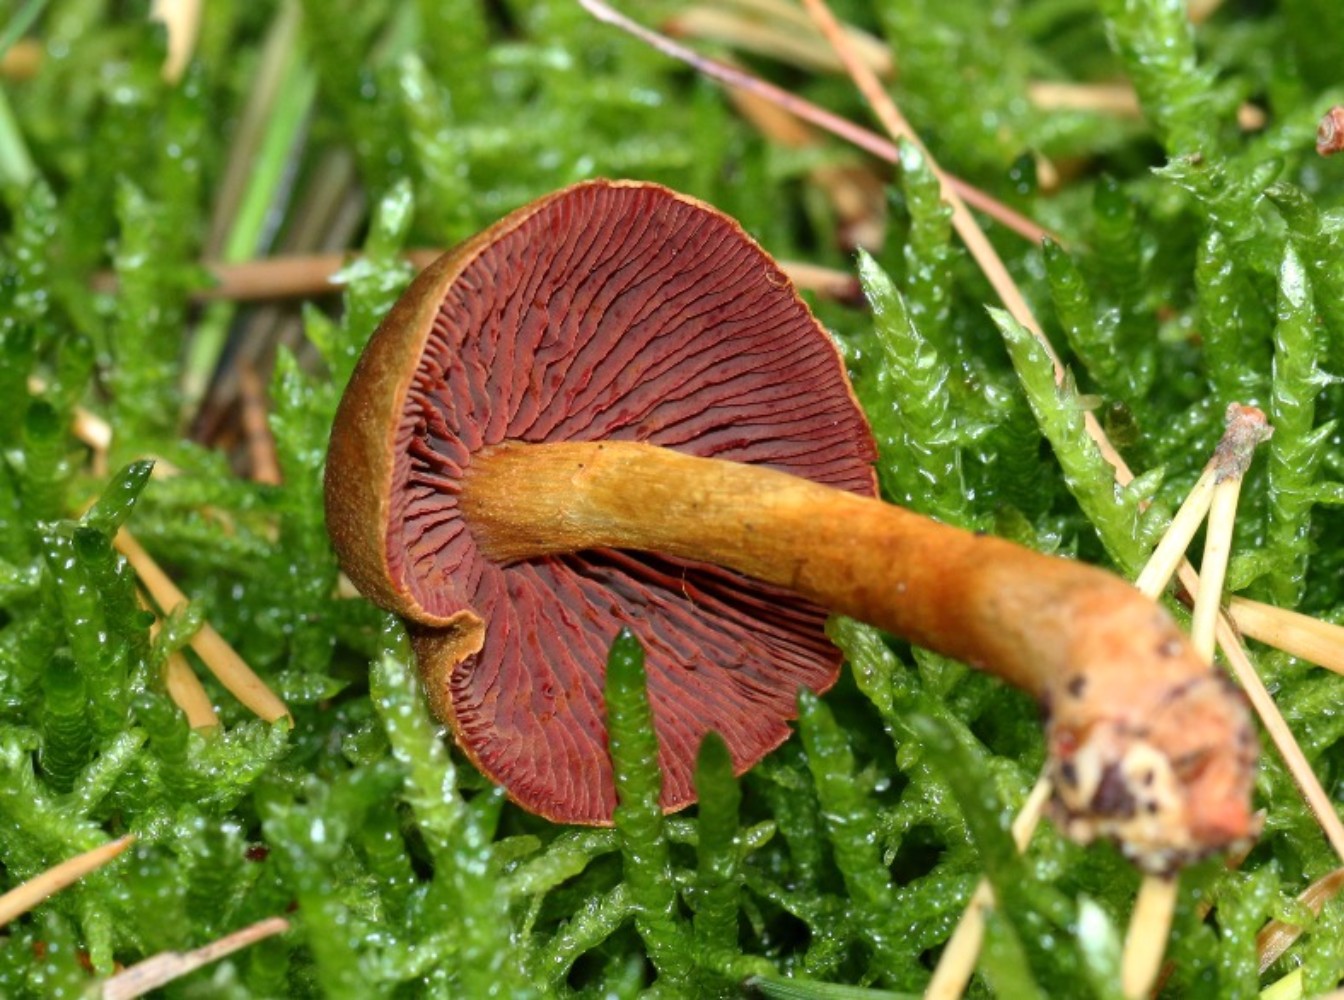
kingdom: Fungi
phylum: Basidiomycota
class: Agaricomycetes
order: Agaricales
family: Cortinariaceae
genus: Cortinarius
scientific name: Cortinarius
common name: cinnoberbladet slørhat
